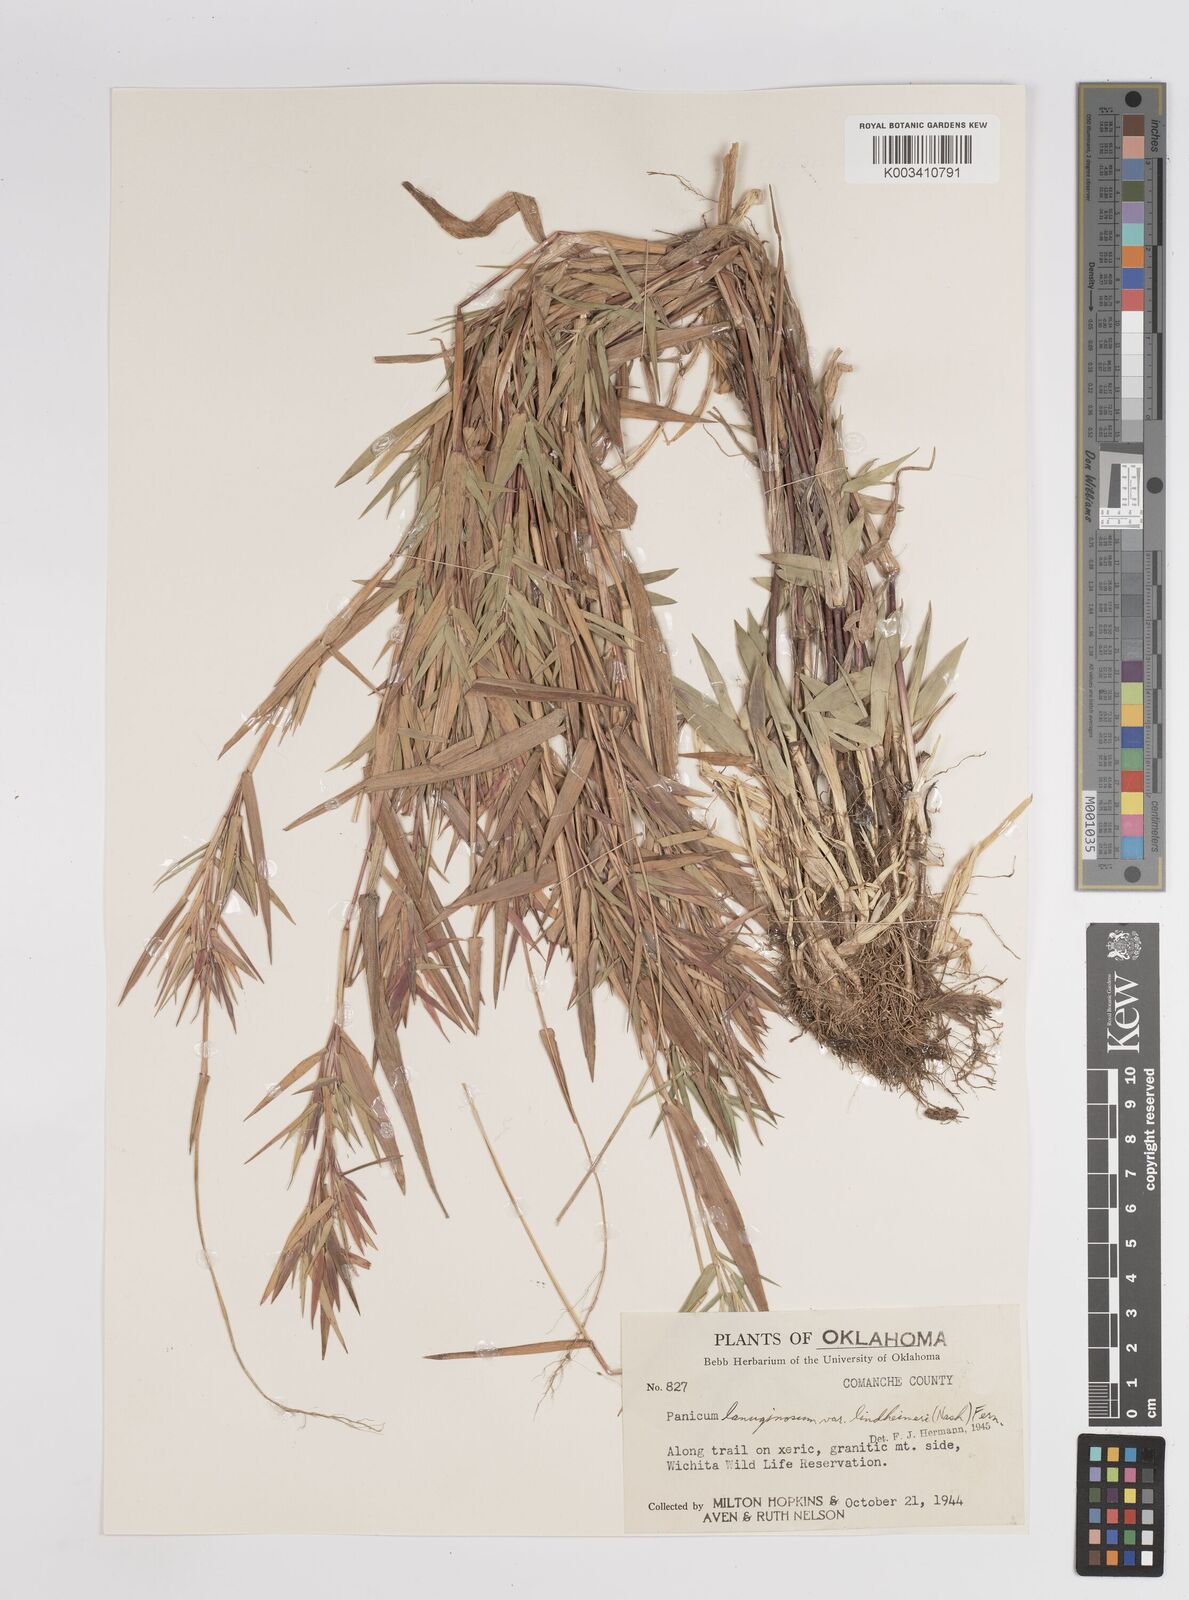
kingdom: Plantae
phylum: Tracheophyta
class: Liliopsida
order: Poales
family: Poaceae
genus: Dichanthelium
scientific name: Dichanthelium acuminatum
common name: Hairy panic grass
